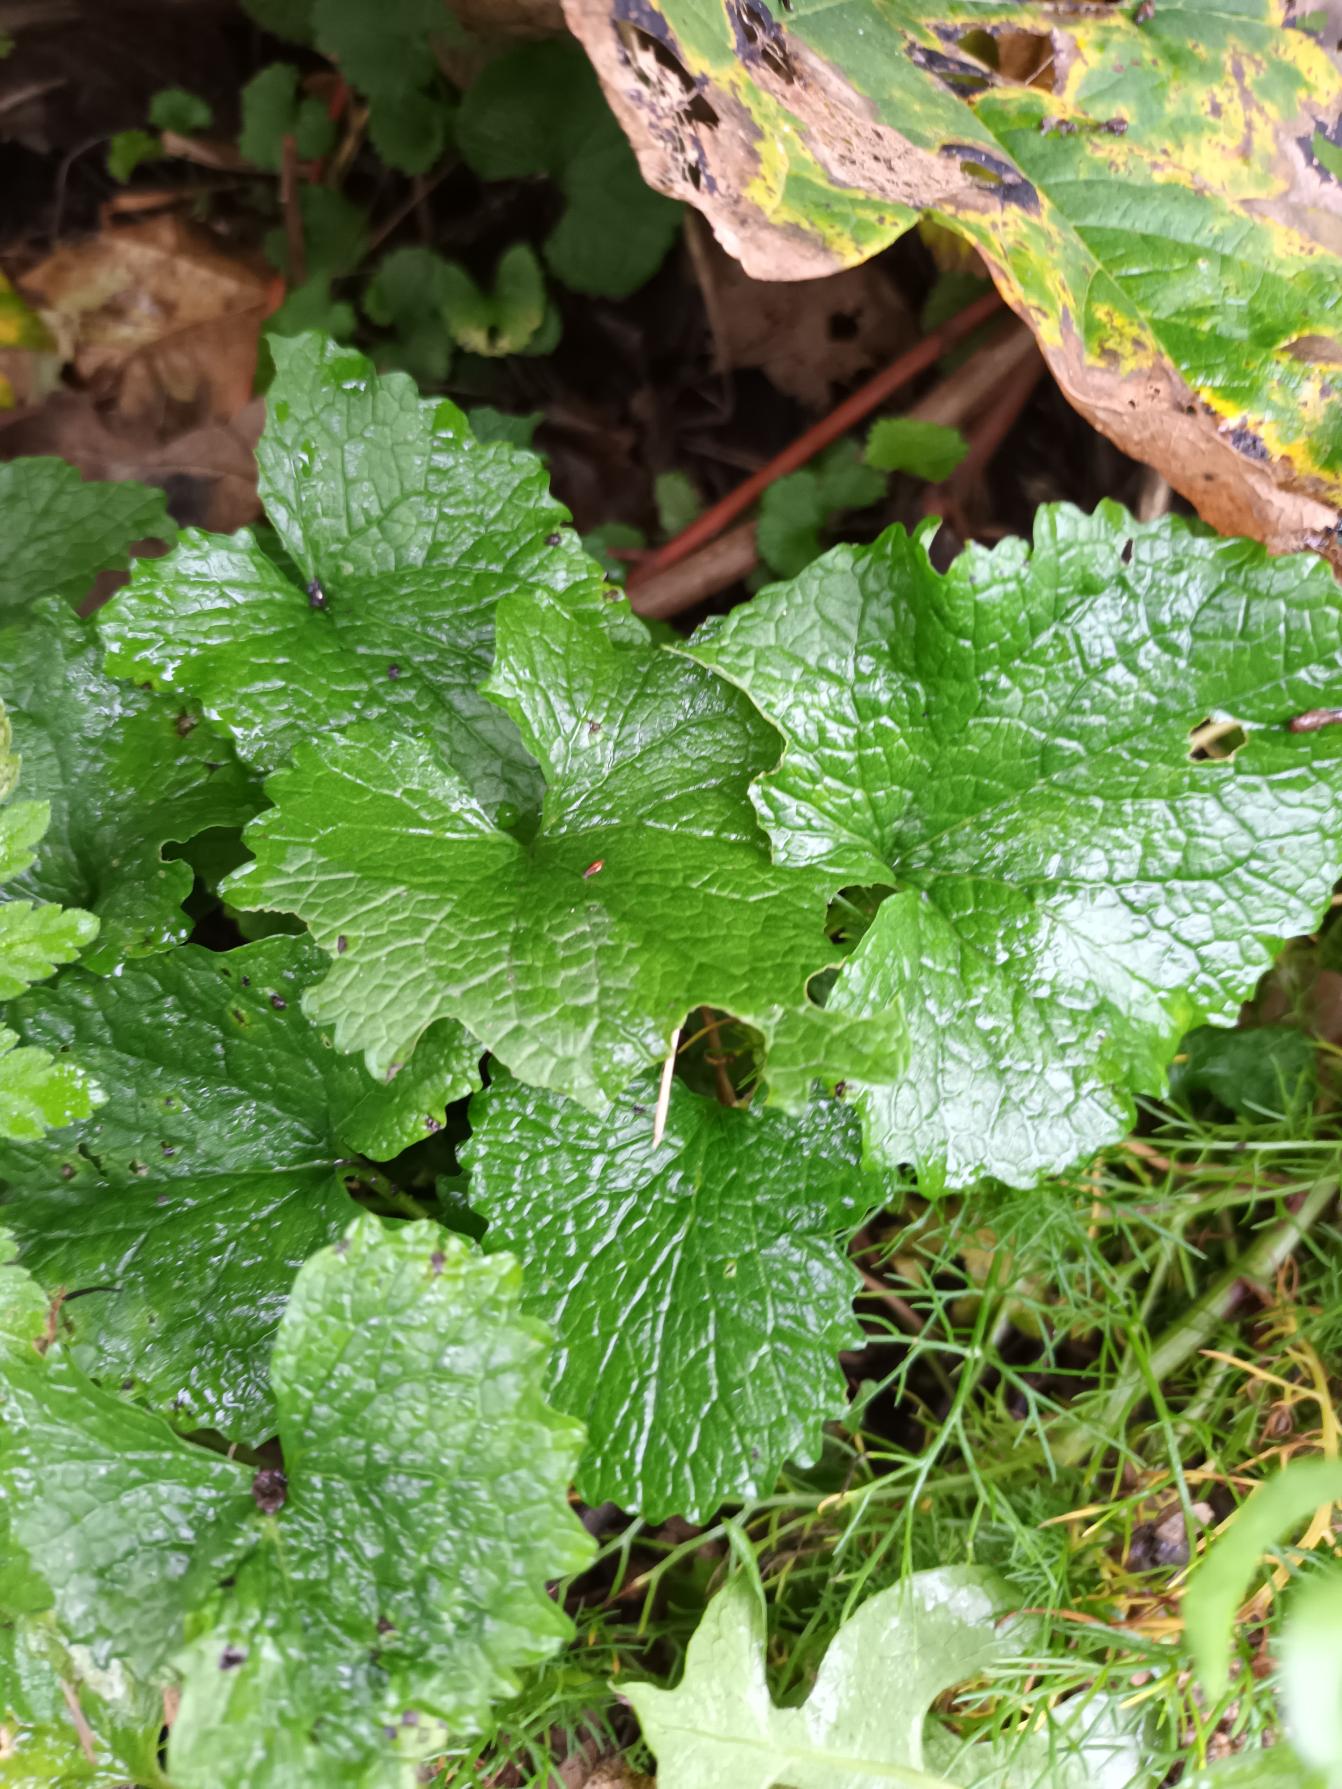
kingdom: Plantae
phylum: Tracheophyta
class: Magnoliopsida
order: Brassicales
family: Brassicaceae
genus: Alliaria
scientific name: Alliaria petiolata
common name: Løgkarse
